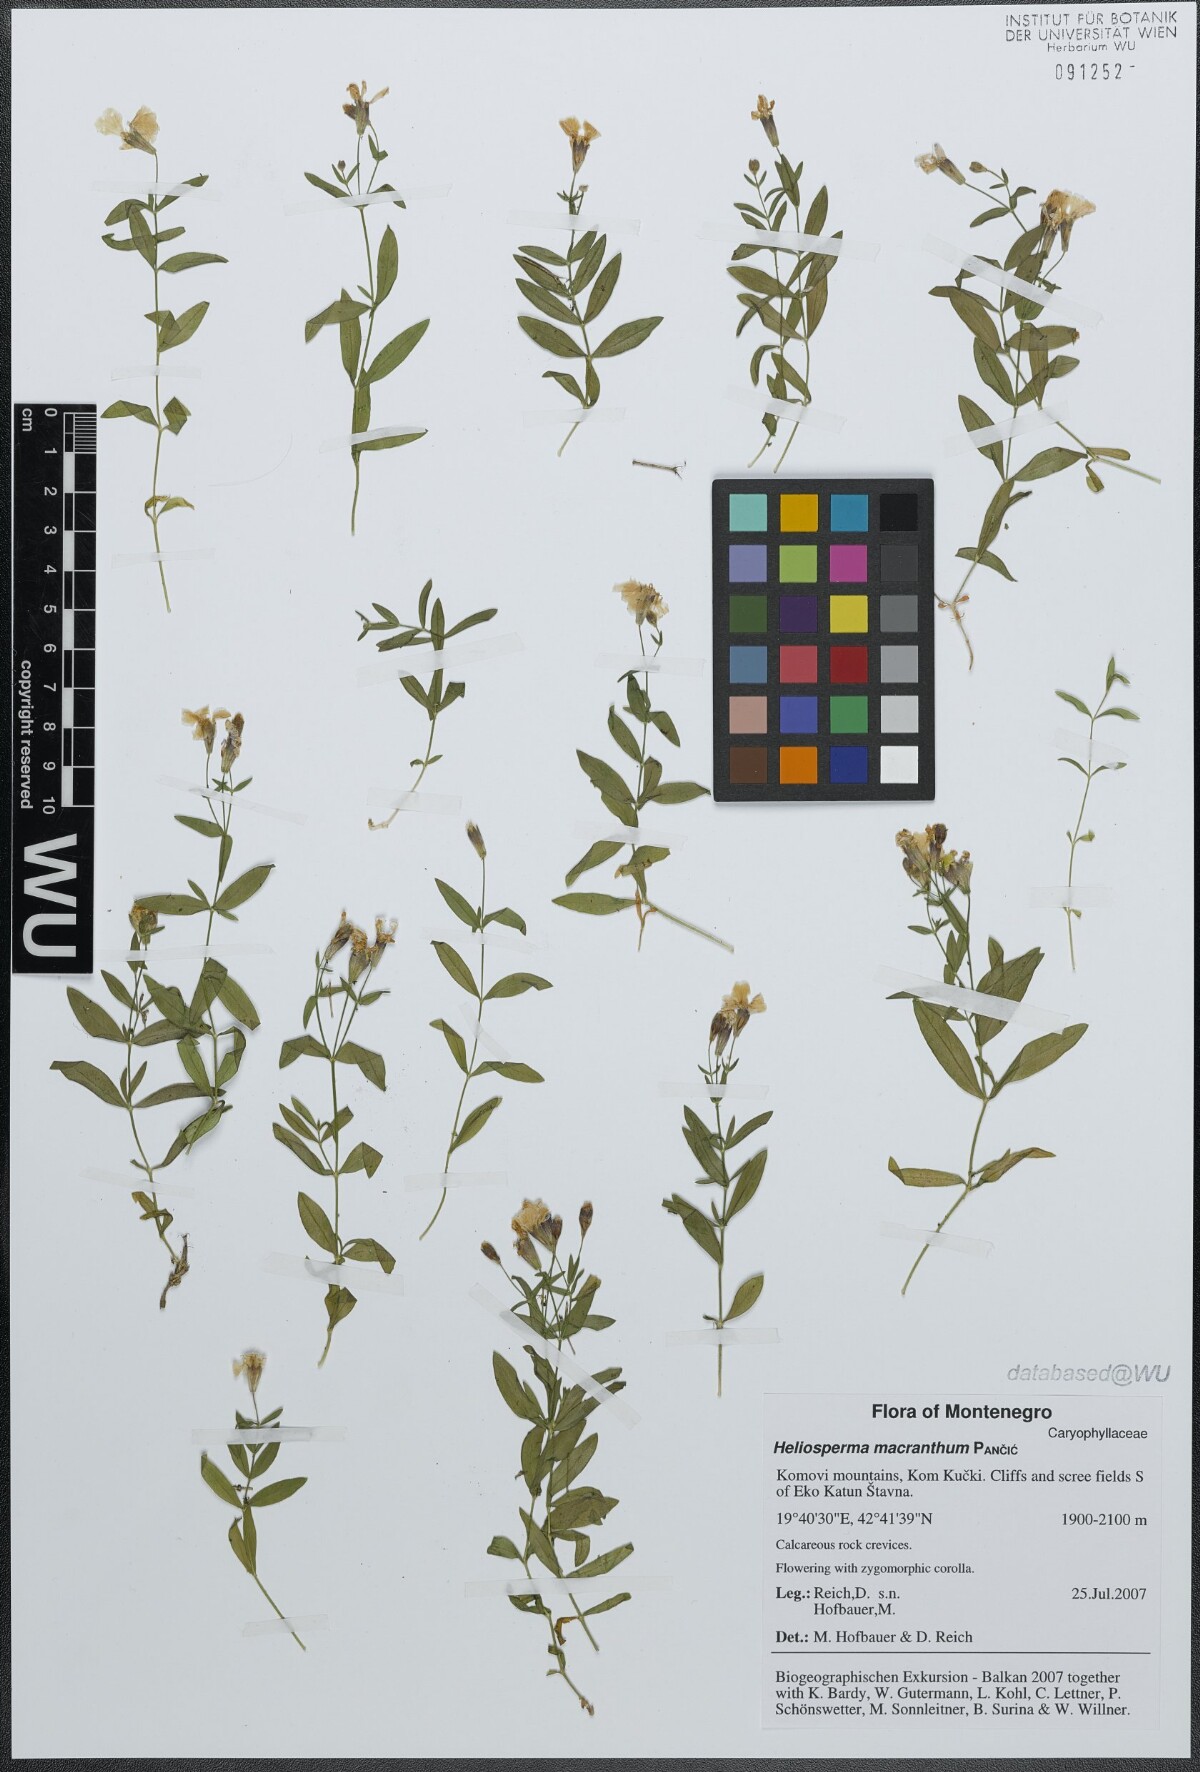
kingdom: Plantae
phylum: Tracheophyta
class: Magnoliopsida
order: Caryophyllales
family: Caryophyllaceae
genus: Heliosperma
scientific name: Heliosperma macranthum
